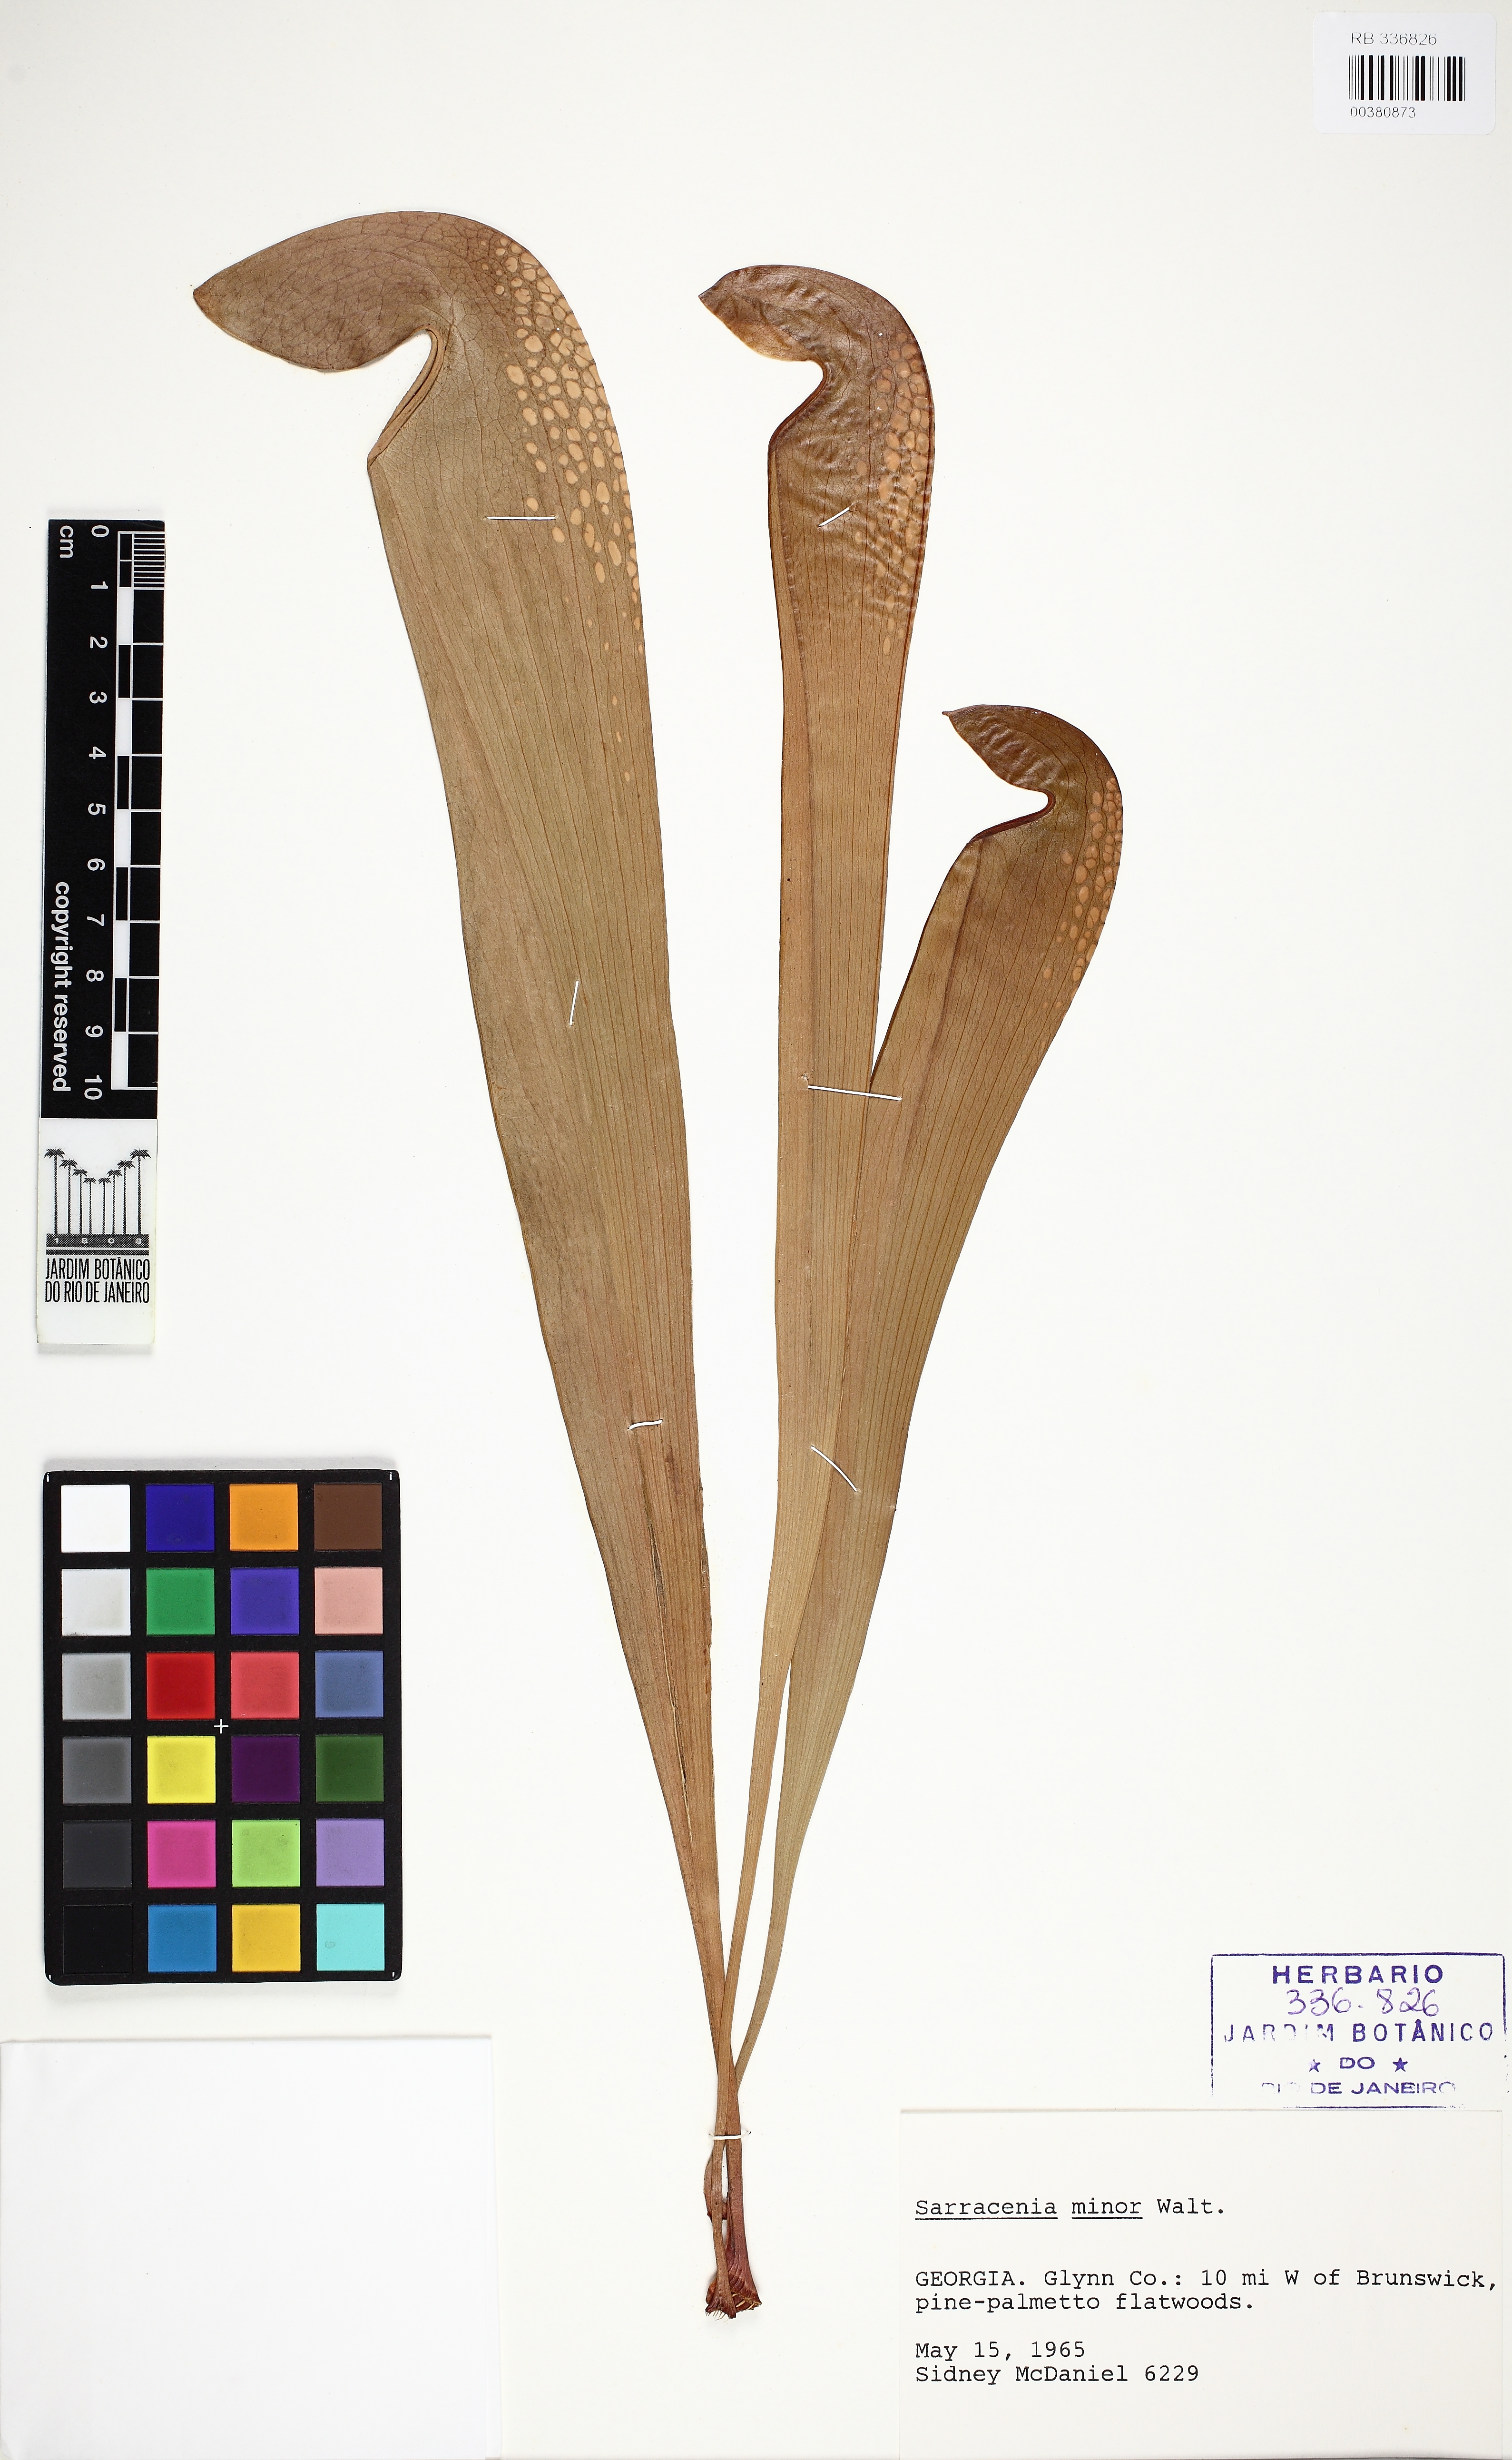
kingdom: Plantae
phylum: Tracheophyta
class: Magnoliopsida
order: Ericales
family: Sarraceniaceae
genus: Sarracenia
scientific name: Sarracenia minor
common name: Rainhat-trumpet
